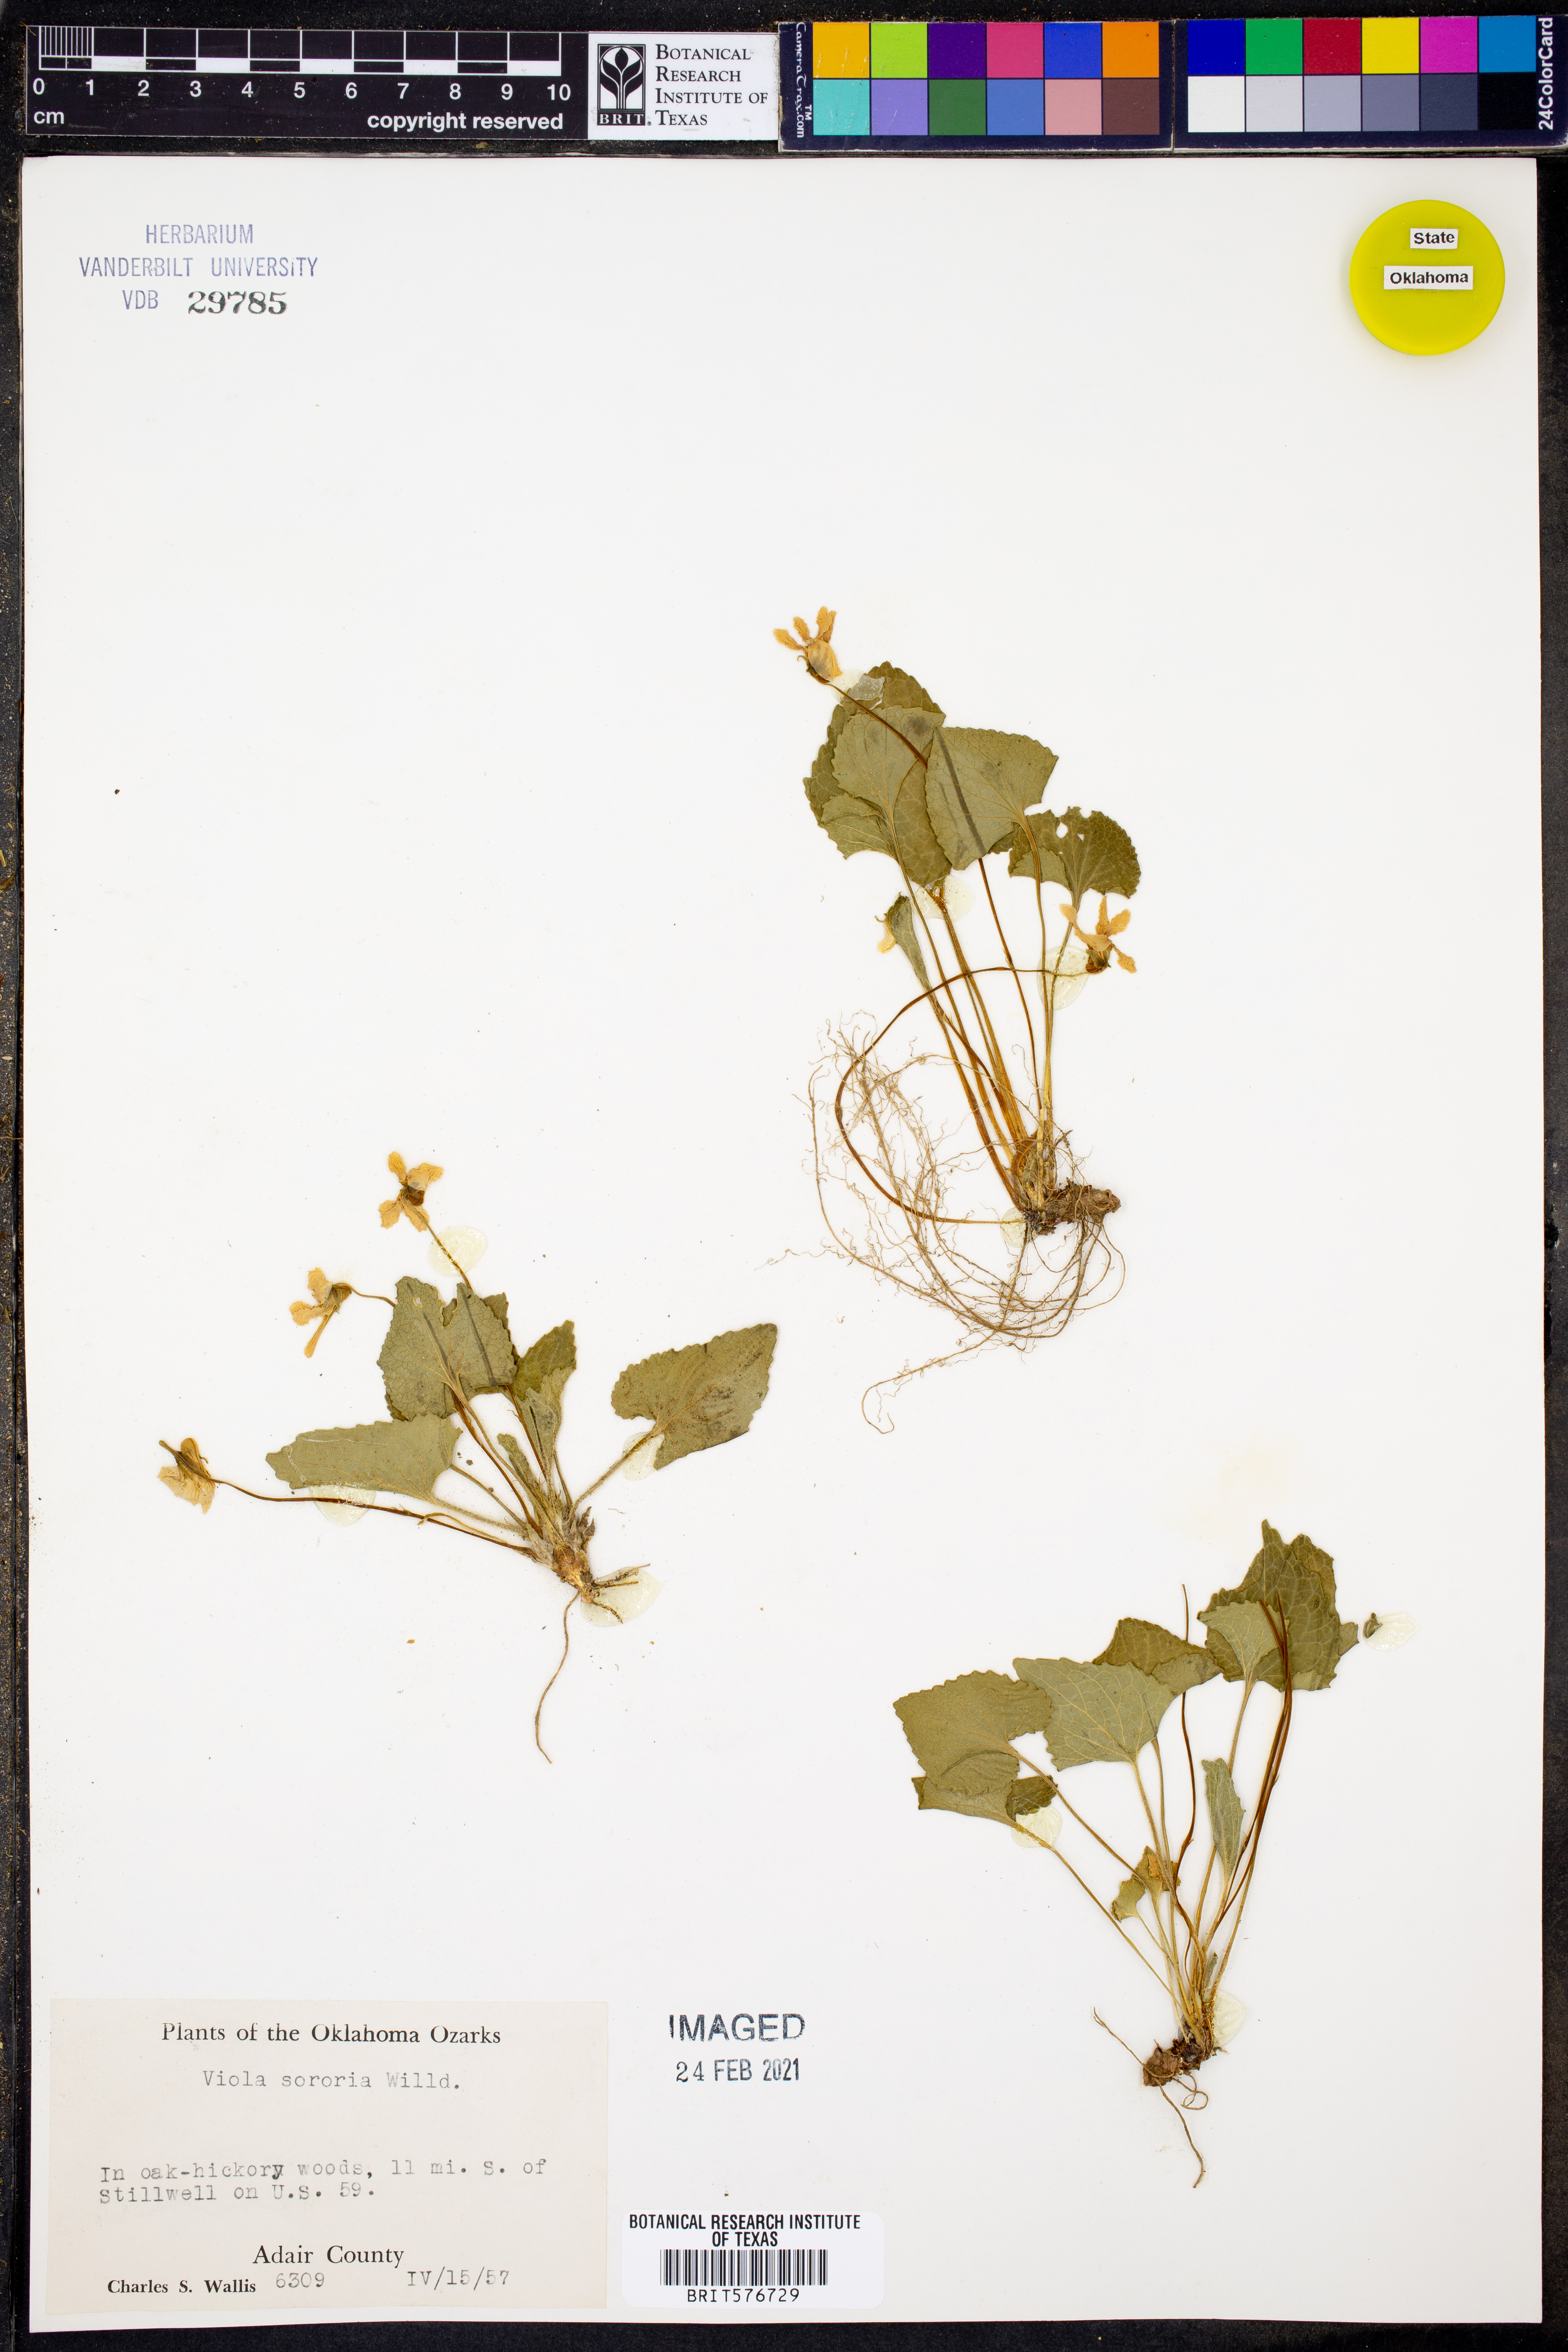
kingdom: Plantae
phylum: Tracheophyta
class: Magnoliopsida
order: Malpighiales
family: Violaceae
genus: Viola
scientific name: Viola sororia
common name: Dooryard violet
